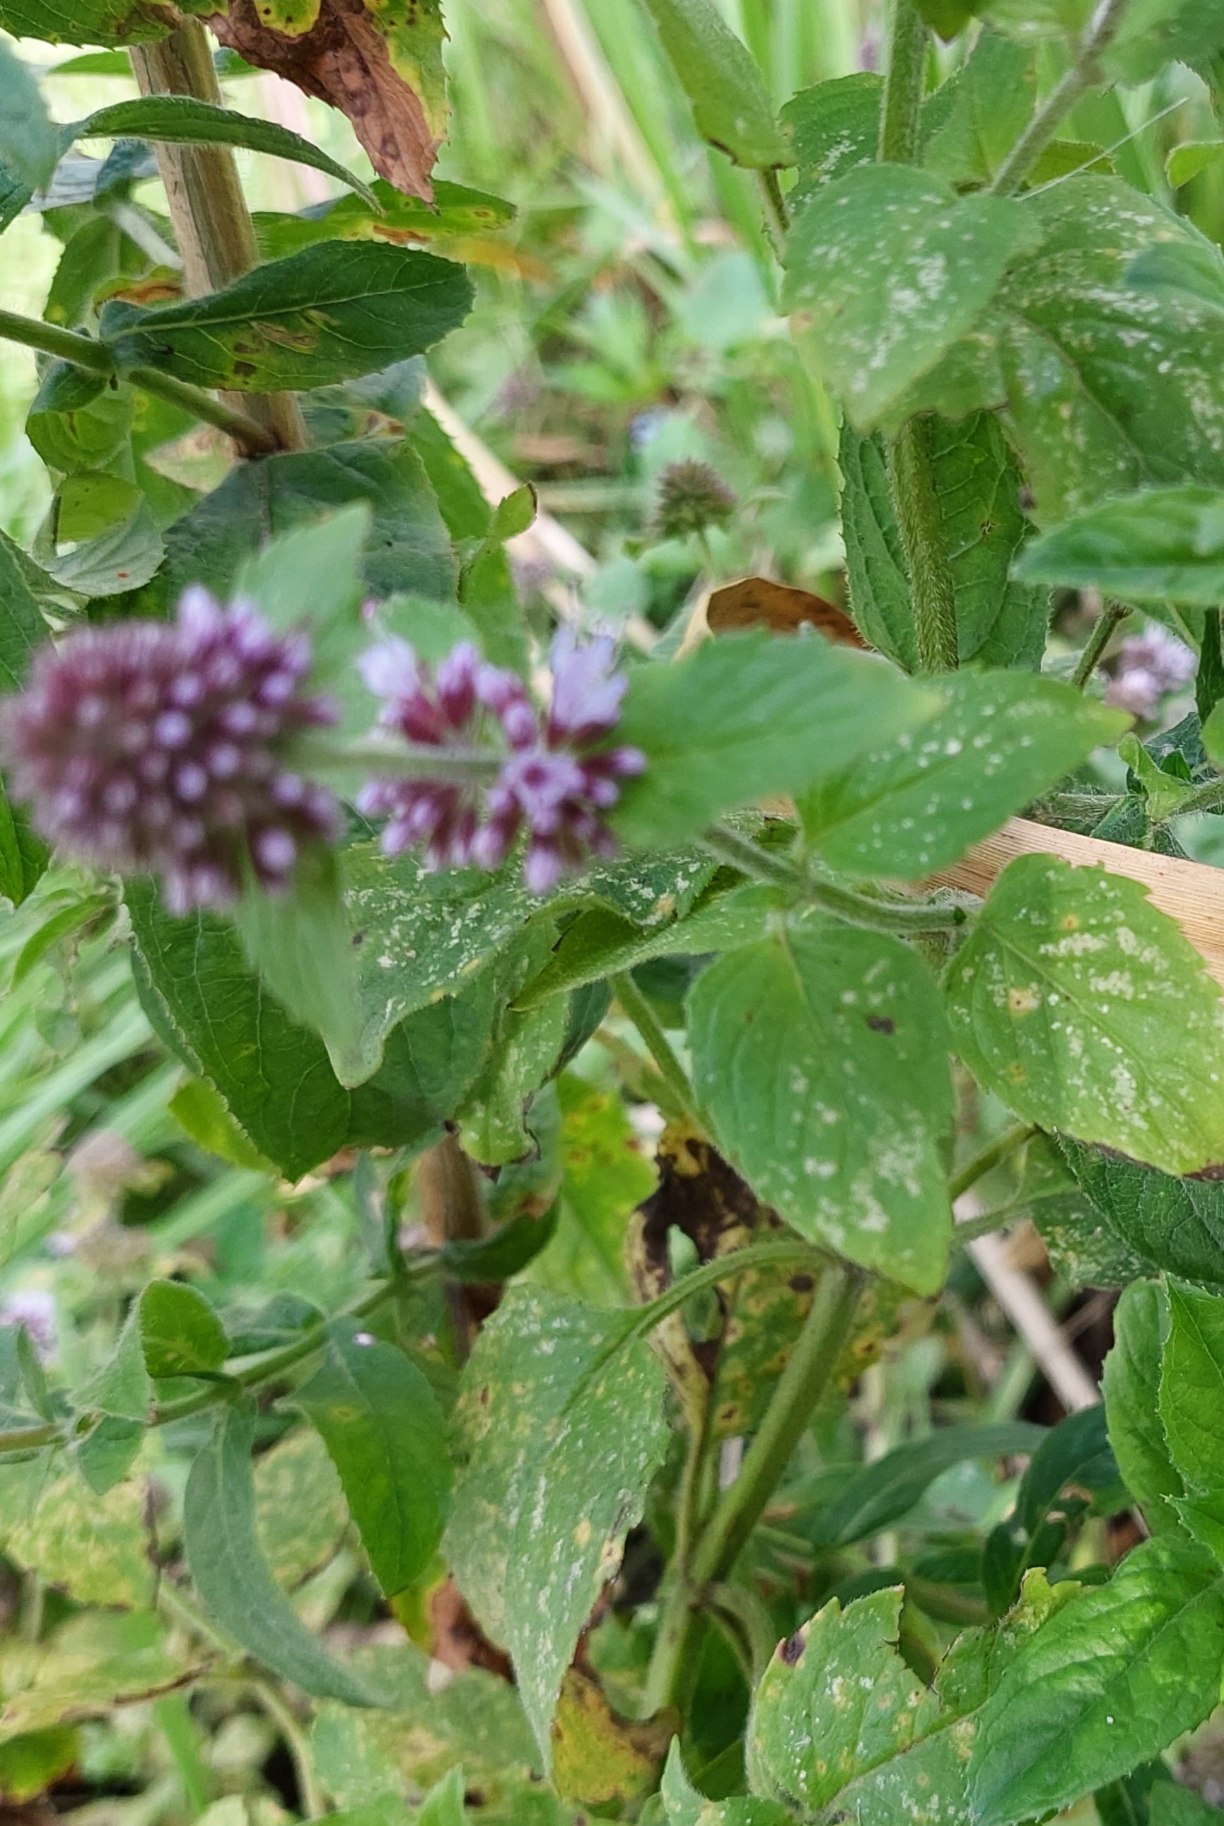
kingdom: Plantae
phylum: Tracheophyta
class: Magnoliopsida
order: Lamiales
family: Lamiaceae
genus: Mentha
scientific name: Mentha aquatica
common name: Vand-mynte
